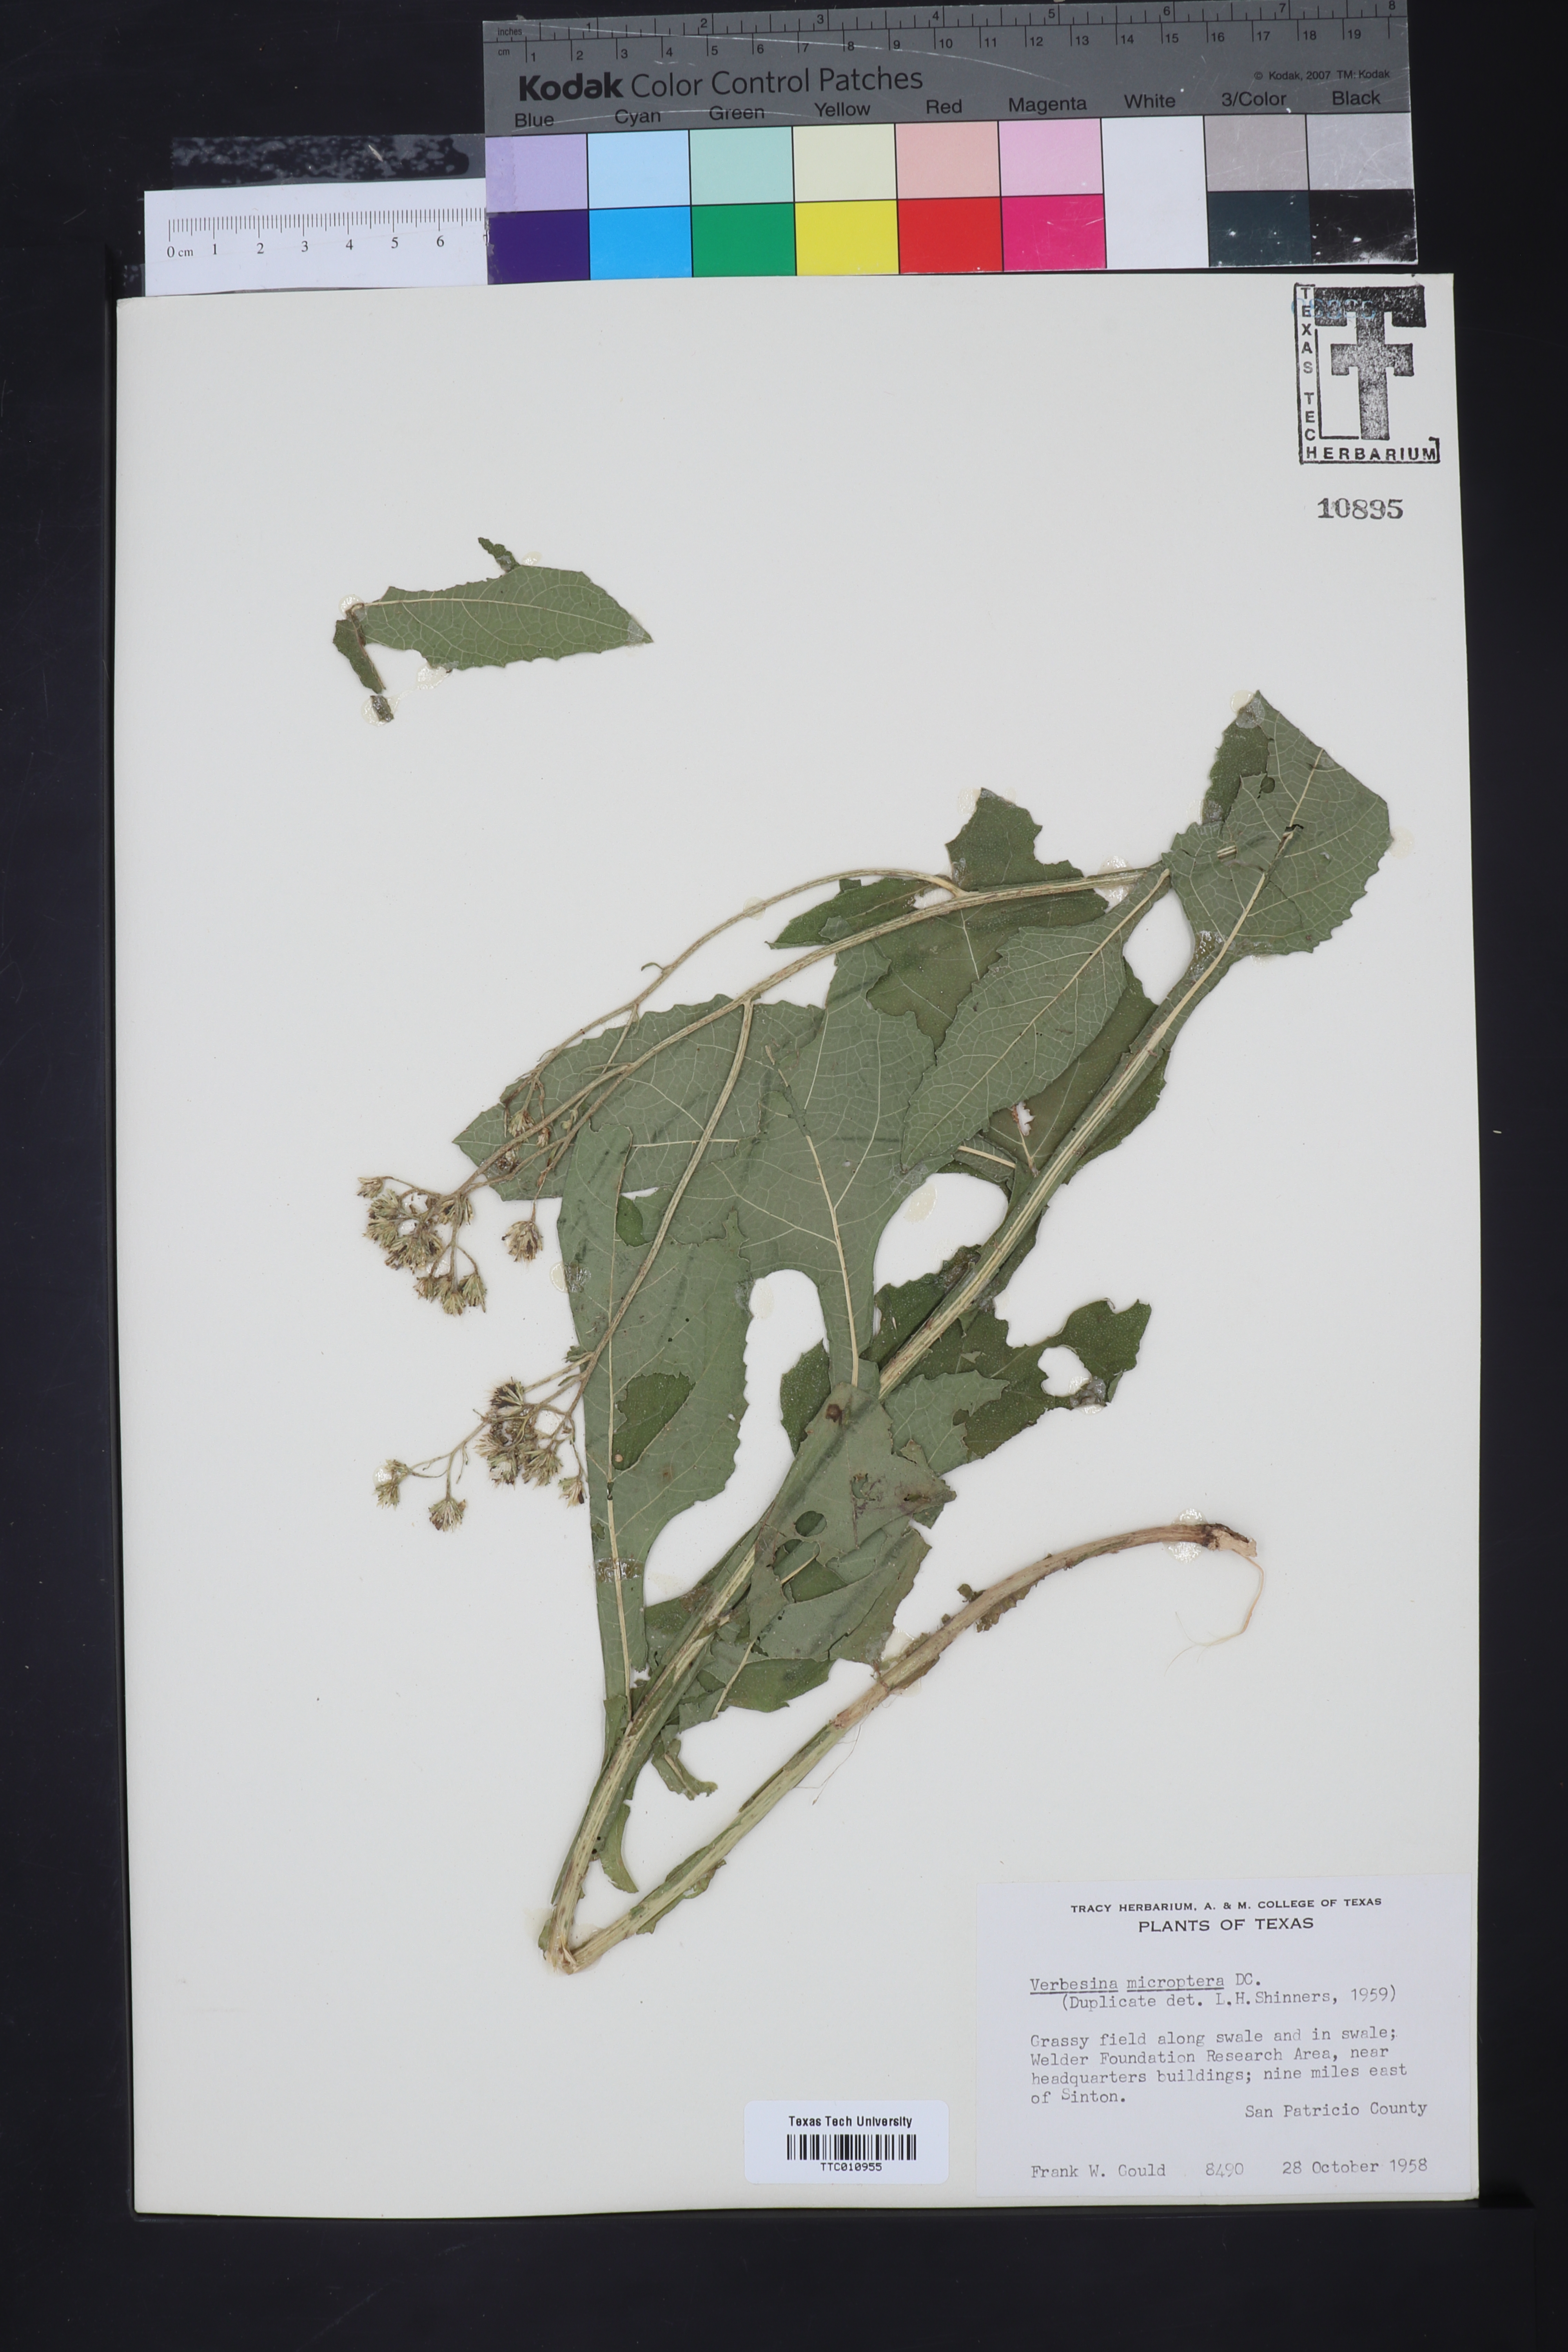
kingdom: Plantae
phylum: Tracheophyta
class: Magnoliopsida
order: Asterales
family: Asteraceae
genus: Verbesina
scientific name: Verbesina encelioides
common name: Golden crownbeard
